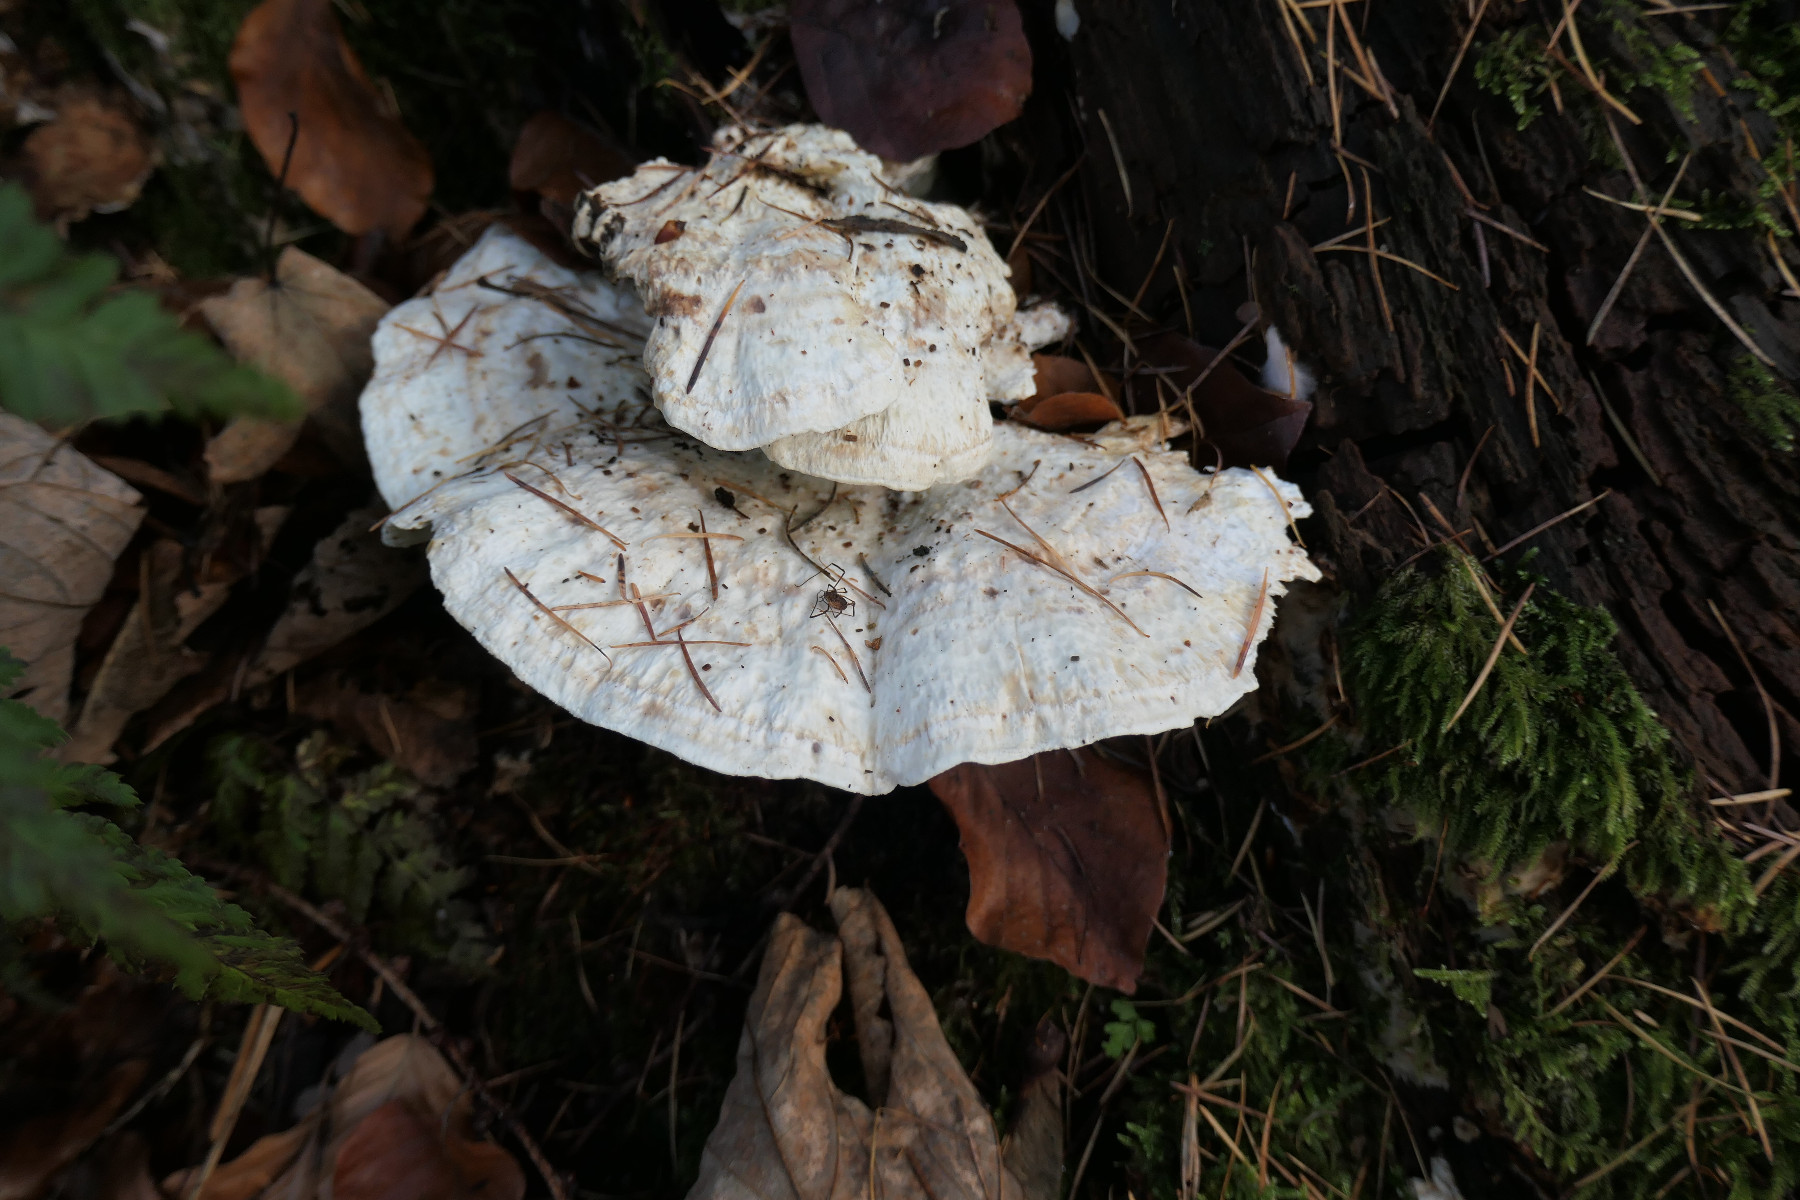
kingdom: Fungi
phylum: Basidiomycota
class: Agaricomycetes
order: Polyporales
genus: Calcipostia
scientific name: Calcipostia guttulata
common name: dråbe-kødporesvamp
